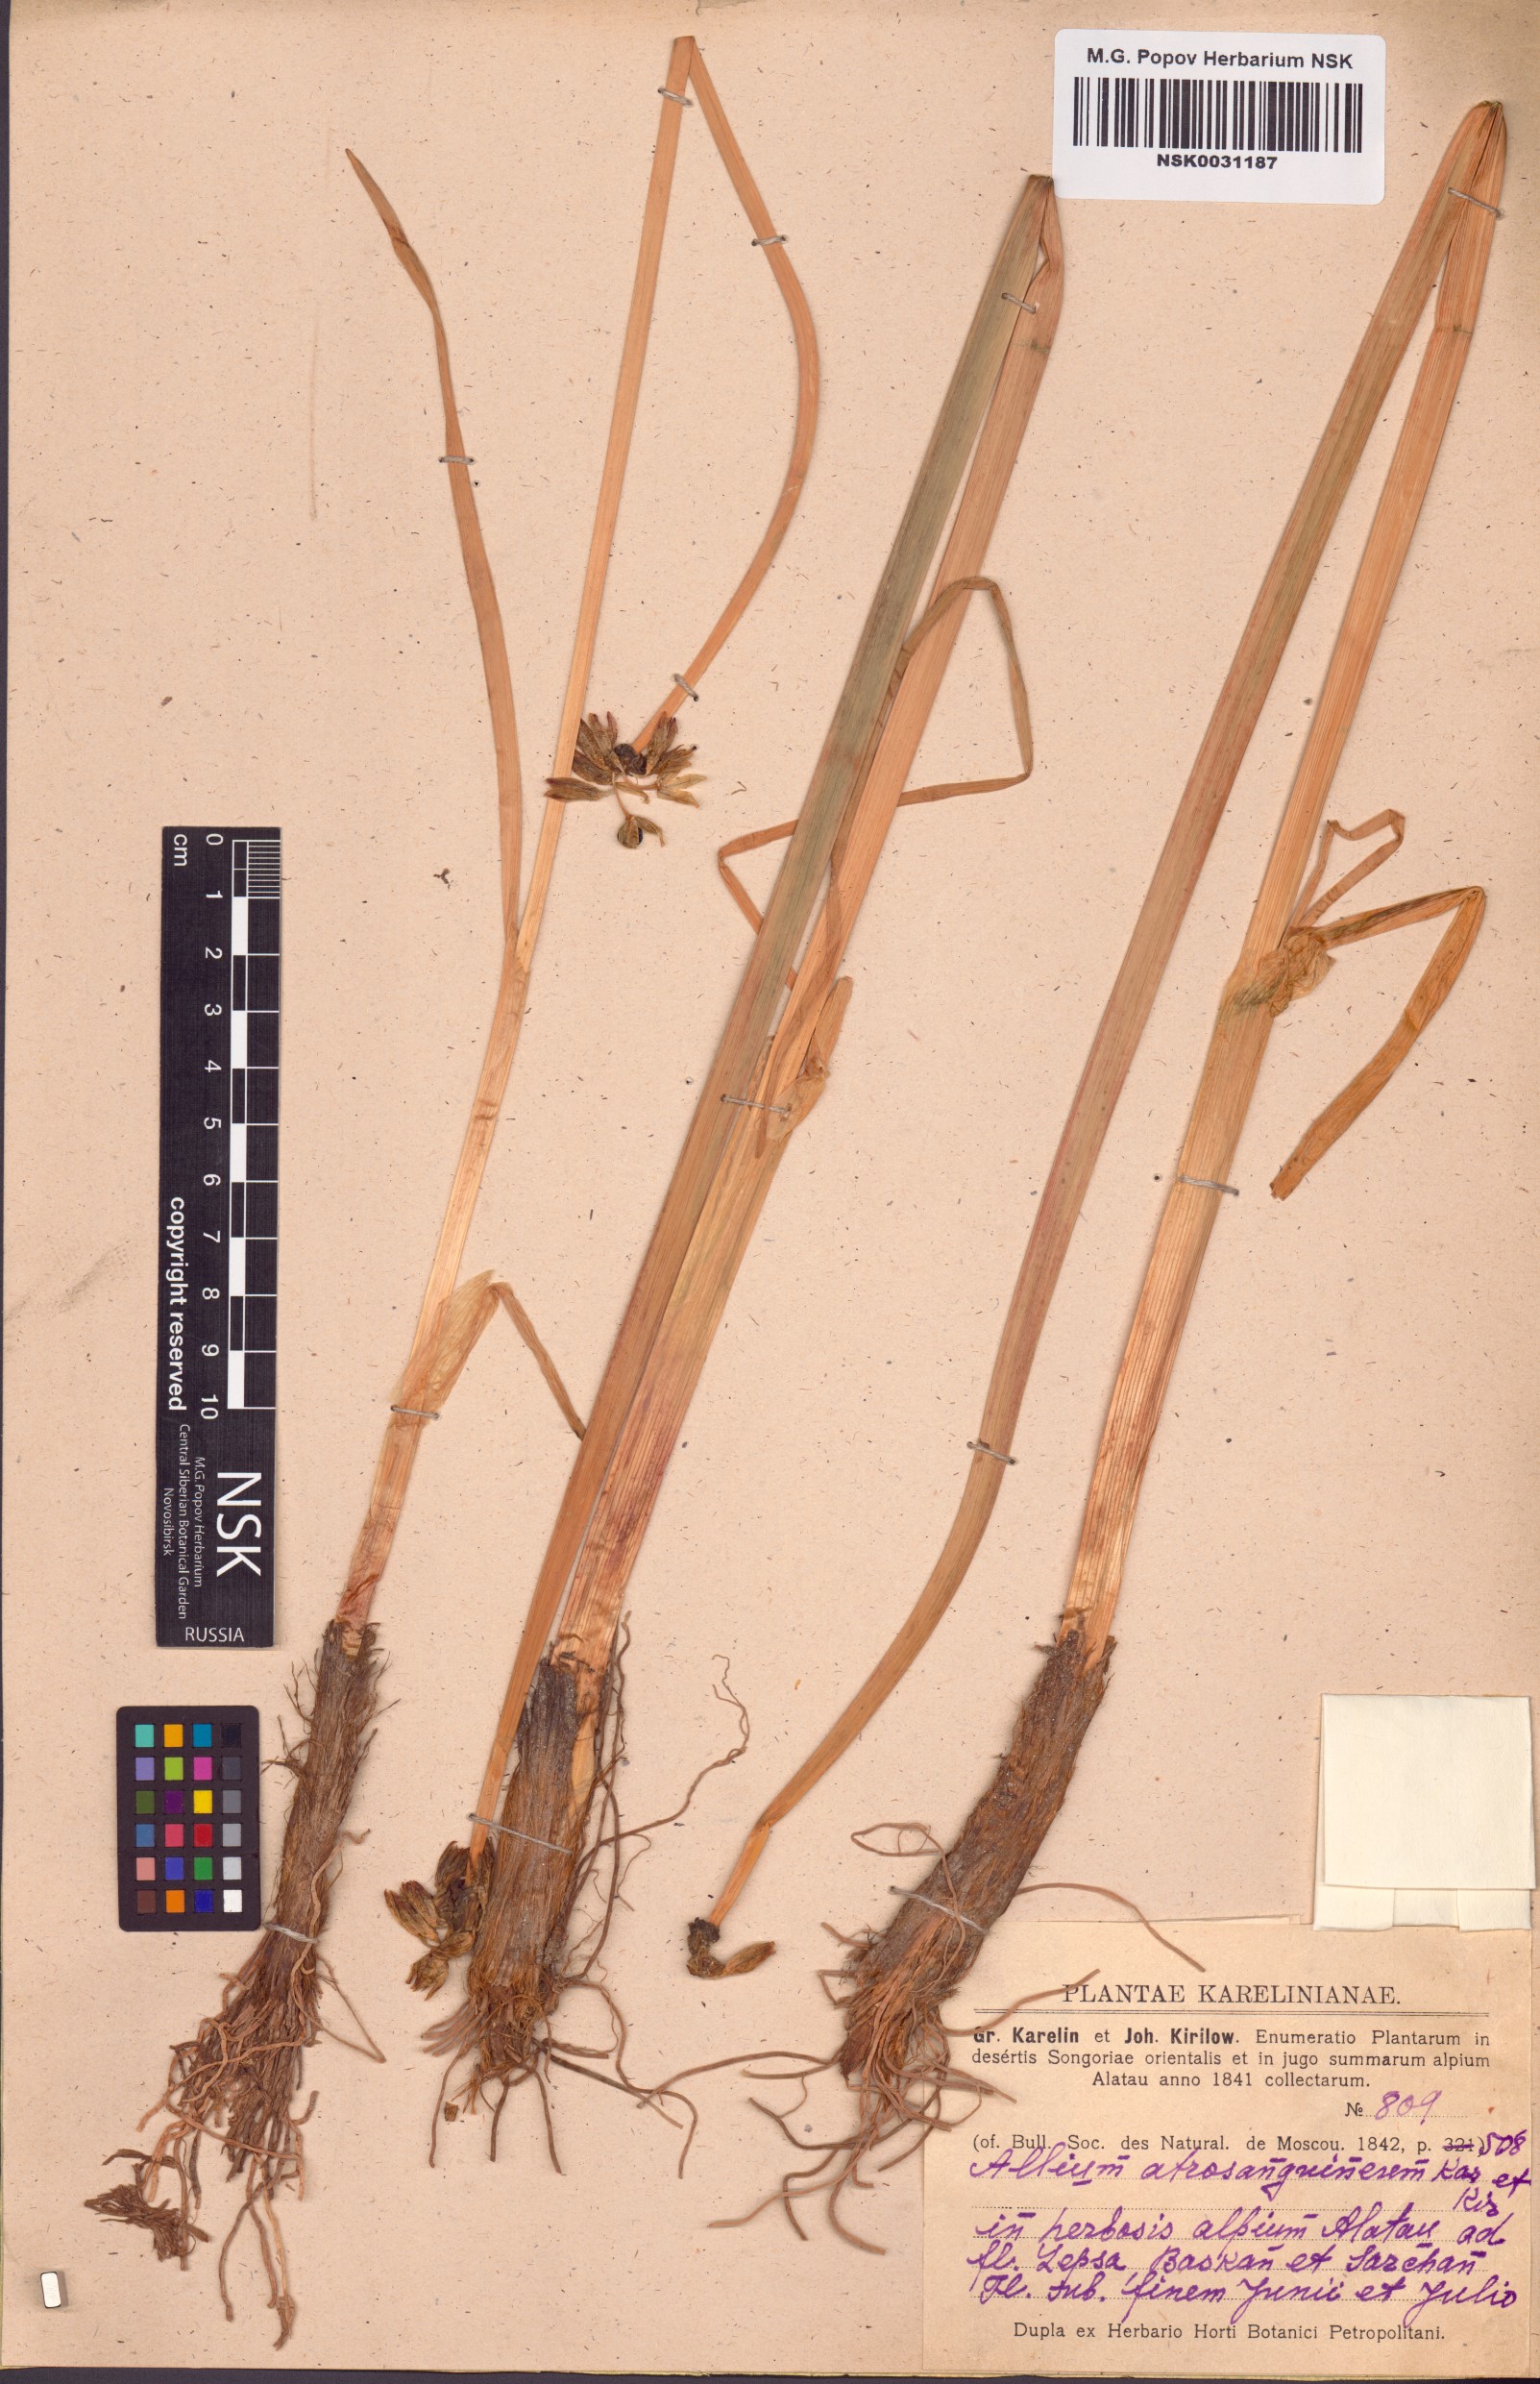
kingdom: Plantae
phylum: Tracheophyta
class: Liliopsida
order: Asparagales
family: Amaryllidaceae
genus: Allium
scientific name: Allium atrosanguineum
